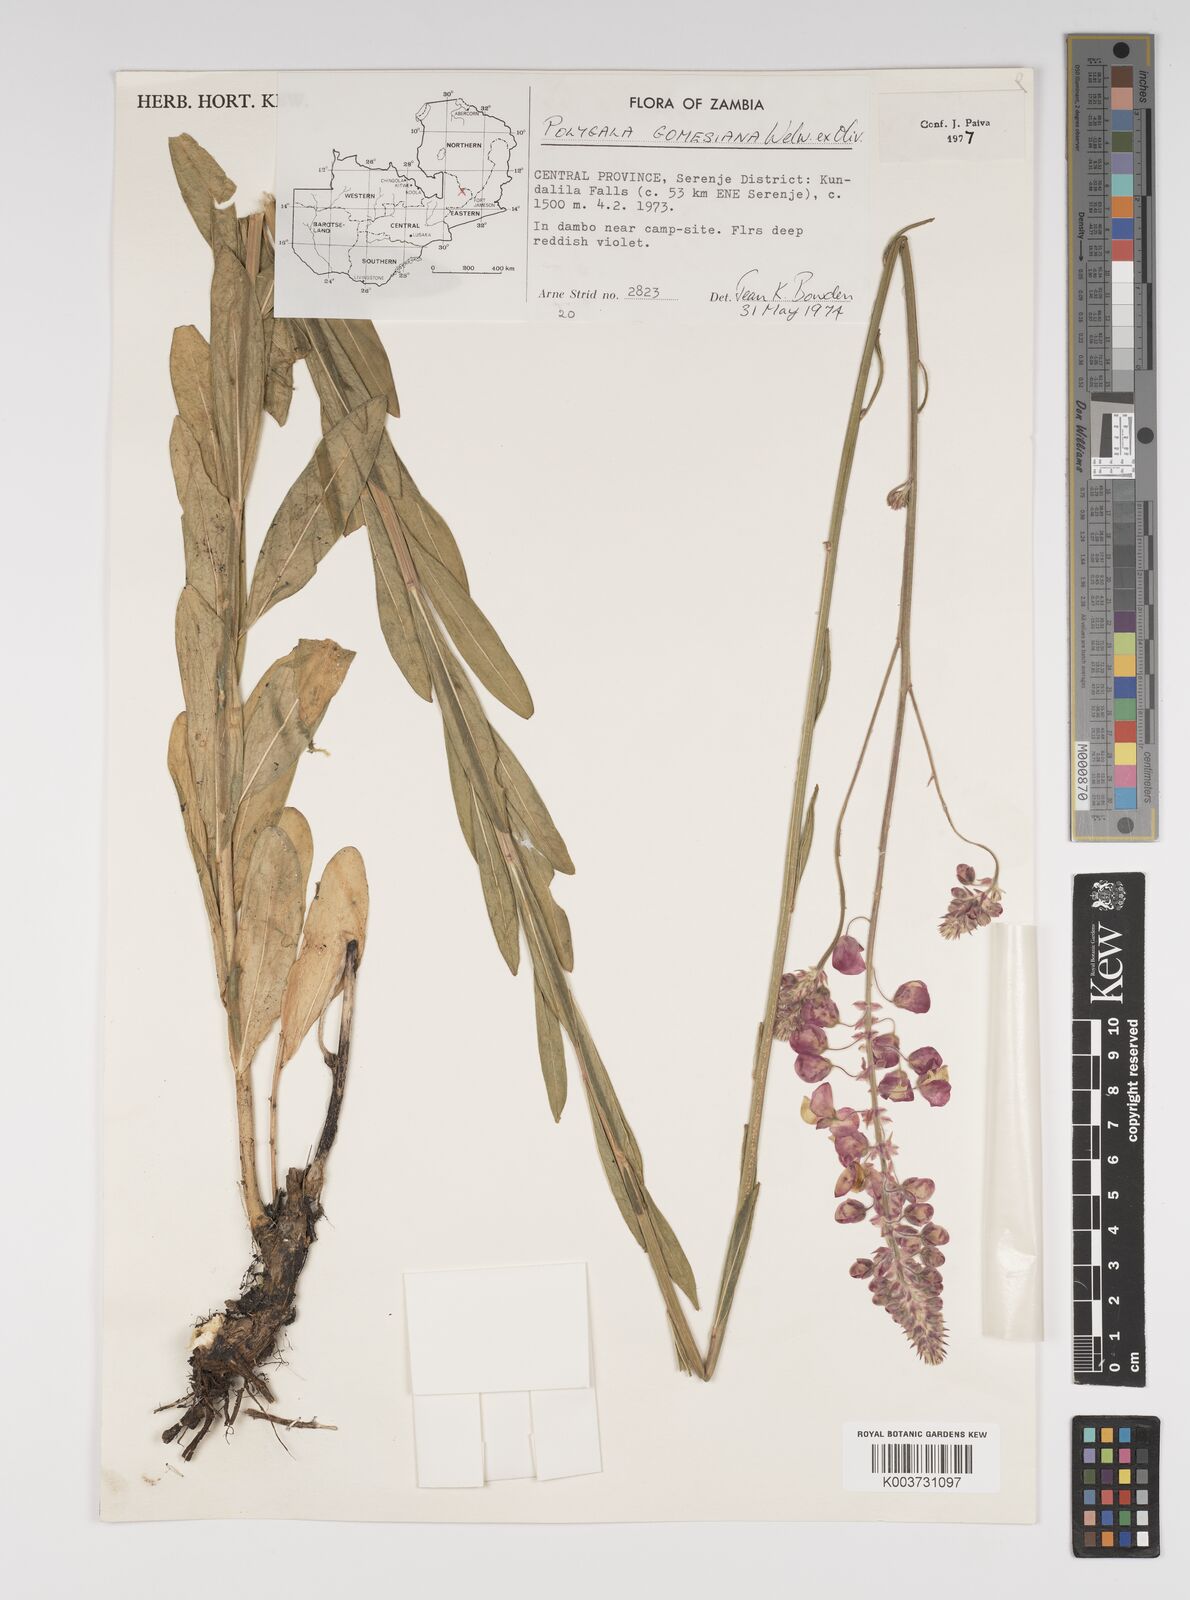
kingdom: Plantae
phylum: Tracheophyta
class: Magnoliopsida
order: Fabales
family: Polygalaceae
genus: Polygala
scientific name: Polygala gomesiana
